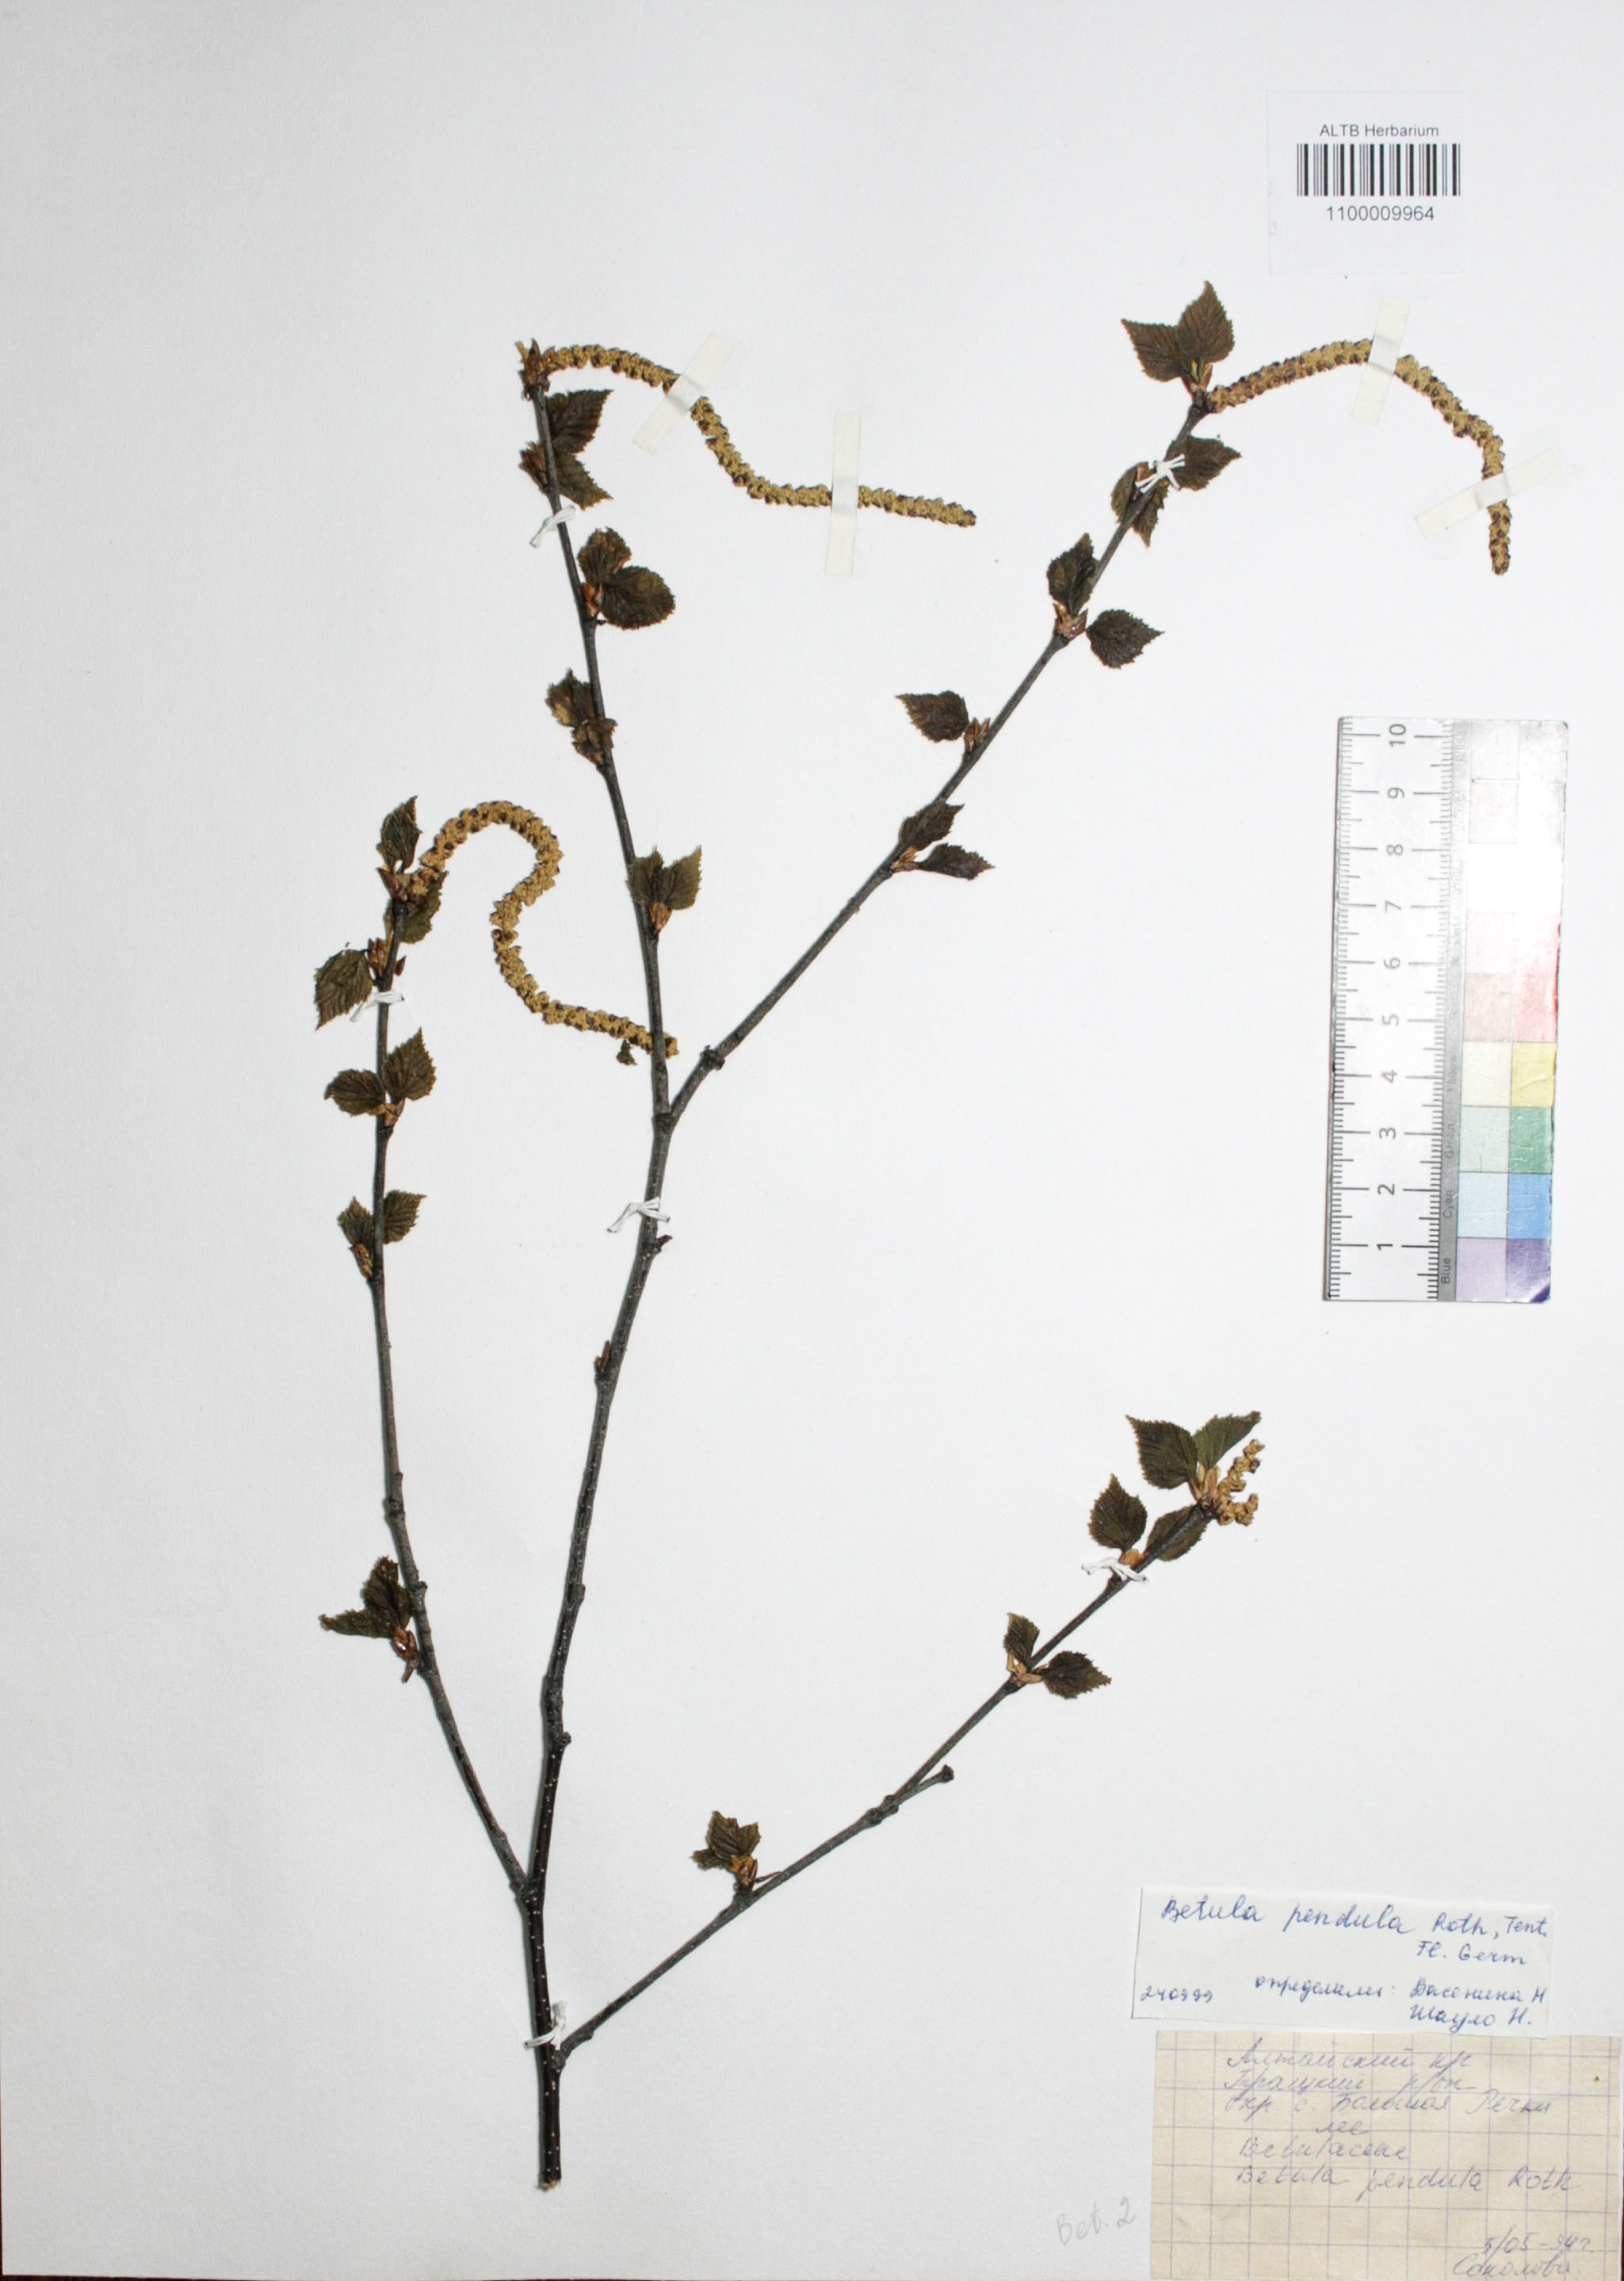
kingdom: Plantae
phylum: Tracheophyta
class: Magnoliopsida
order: Fagales
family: Betulaceae
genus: Betula
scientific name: Betula pendula
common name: Silver birch
